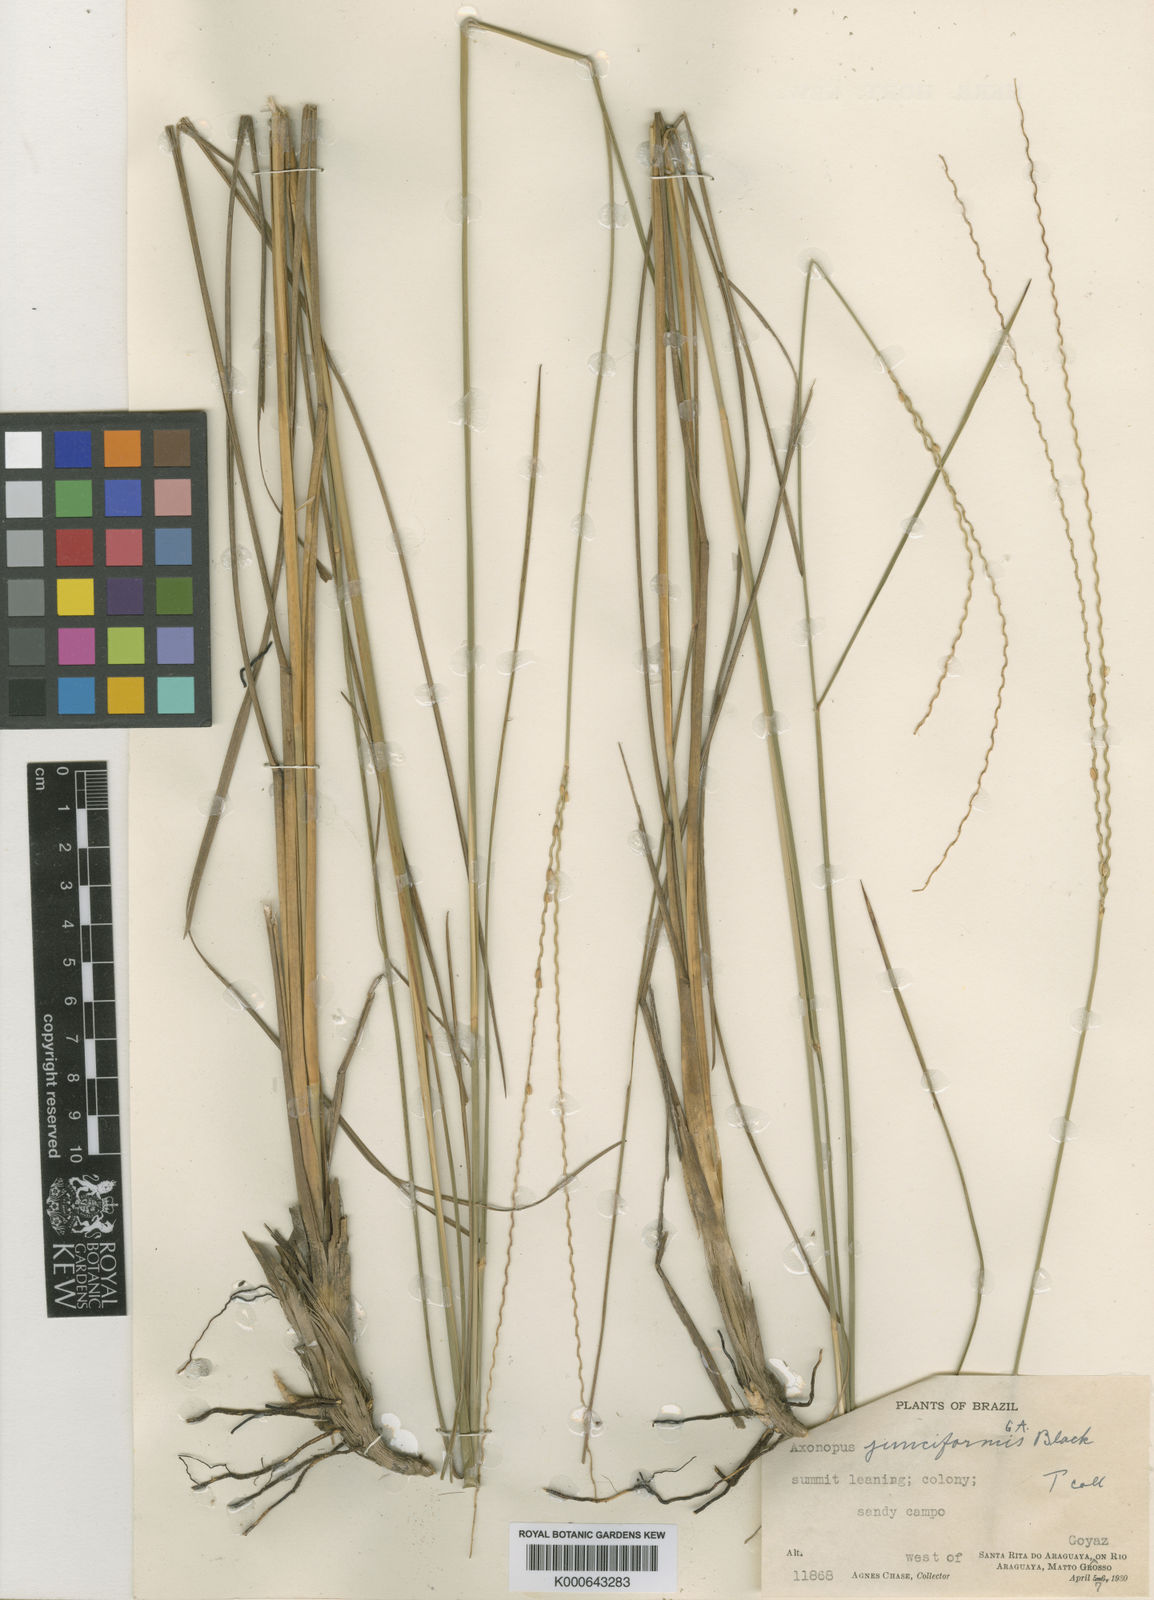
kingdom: Plantae
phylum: Tracheophyta
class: Liliopsida
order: Poales
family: Poaceae
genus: Axonopus
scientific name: Axonopus junciformis
